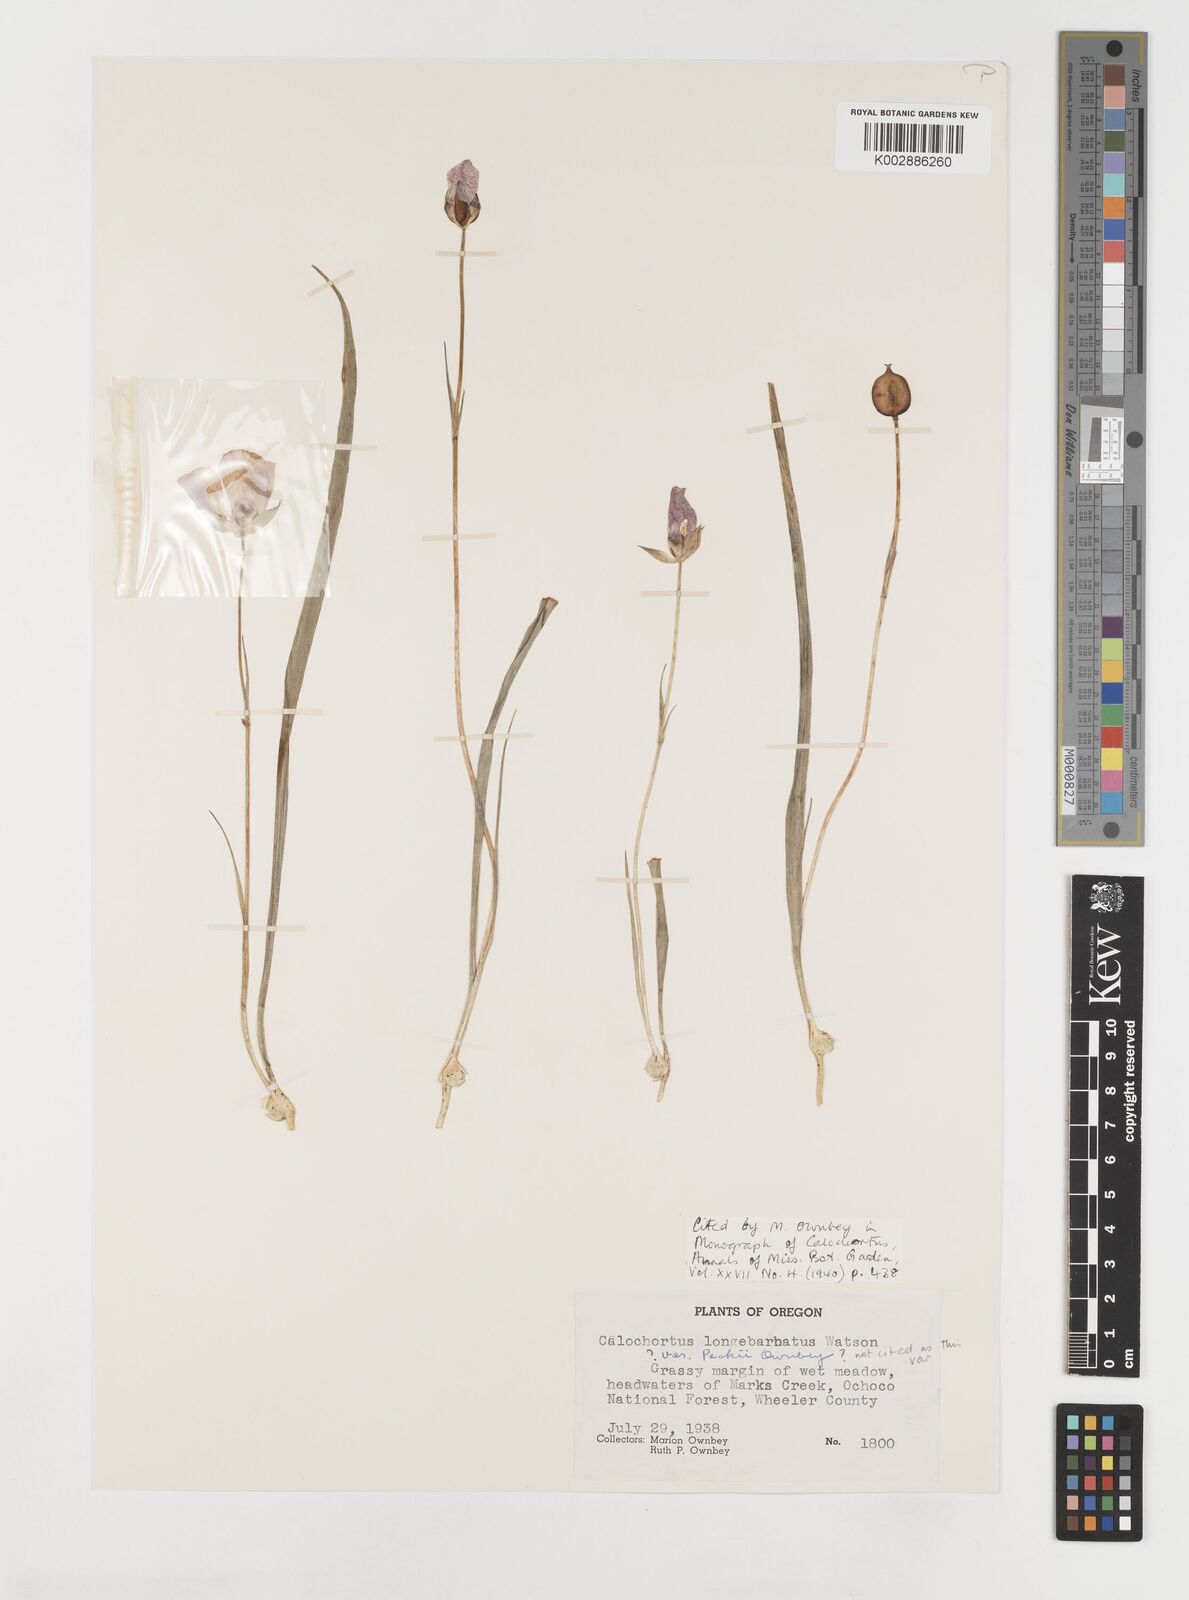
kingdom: Plantae
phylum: Tracheophyta
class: Liliopsida
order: Liliales
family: Liliaceae
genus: Calochortus
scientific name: Calochortus longibarbatus
